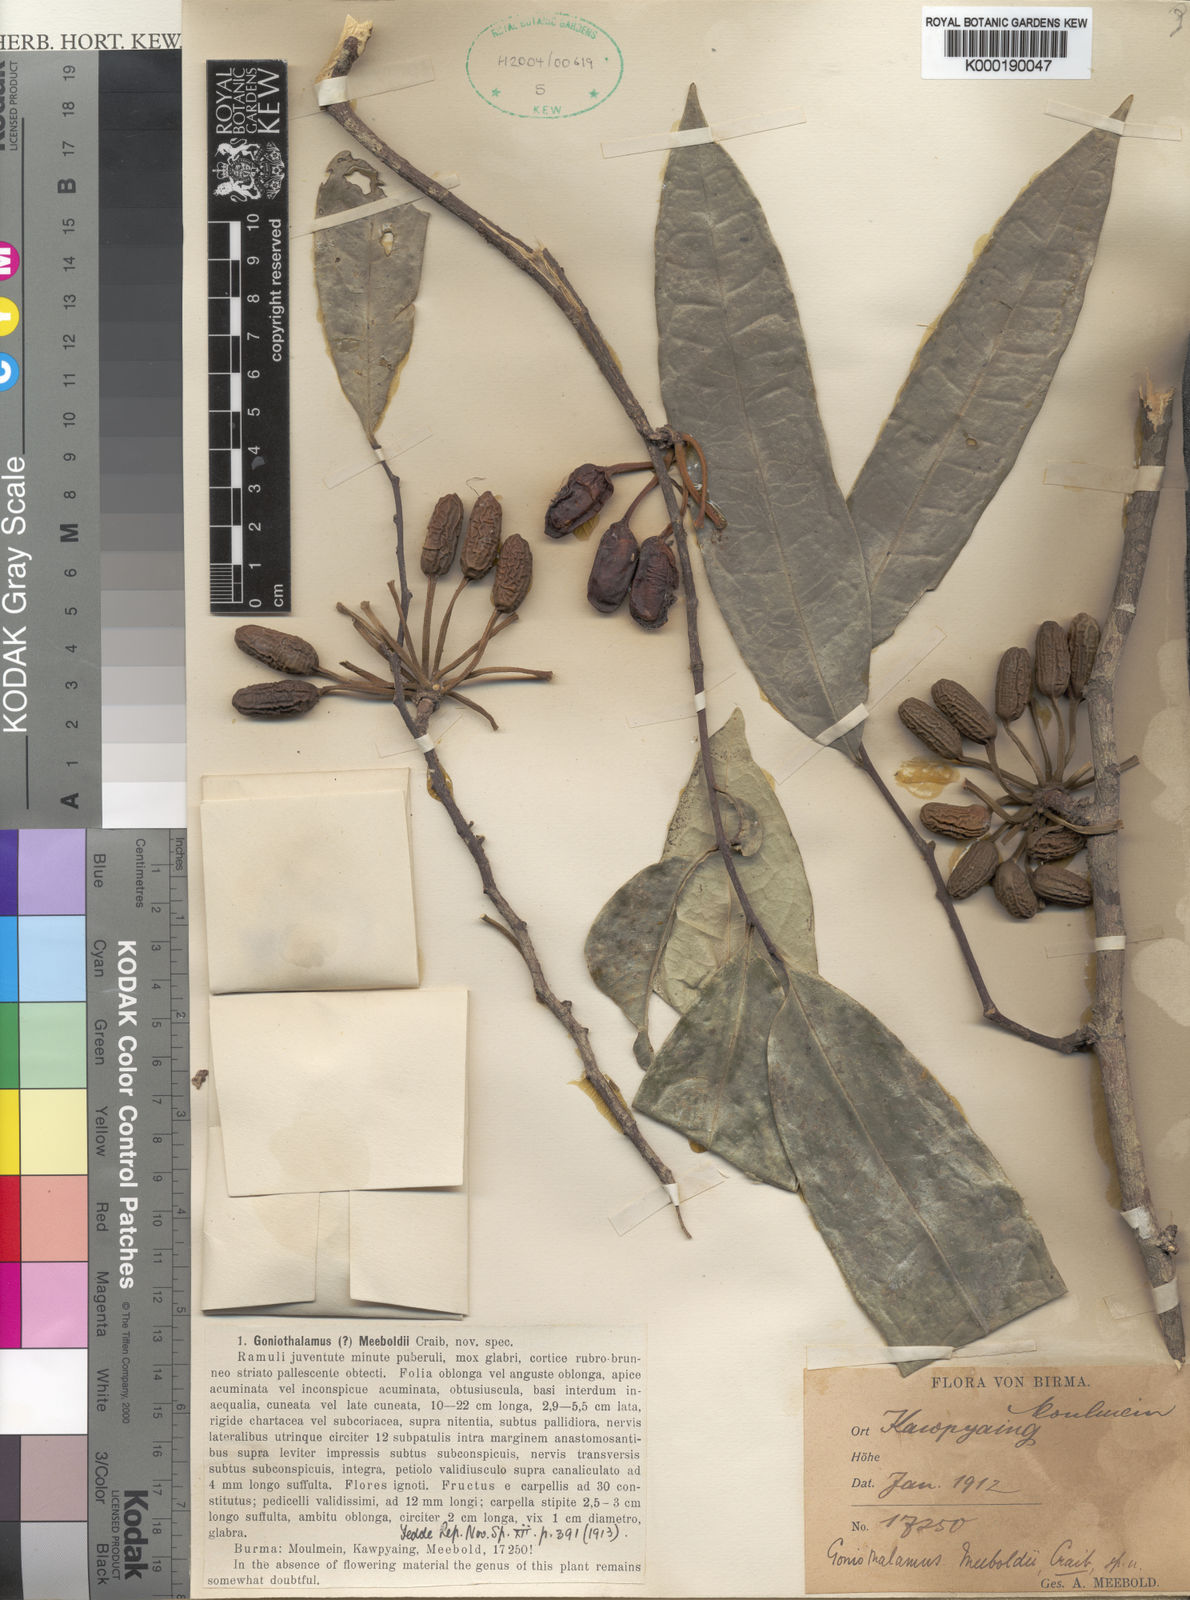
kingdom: Plantae
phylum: Tracheophyta
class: Magnoliopsida
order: Magnoliales
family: Annonaceae
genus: Marsypopetalum
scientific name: Marsypopetalum modestum
